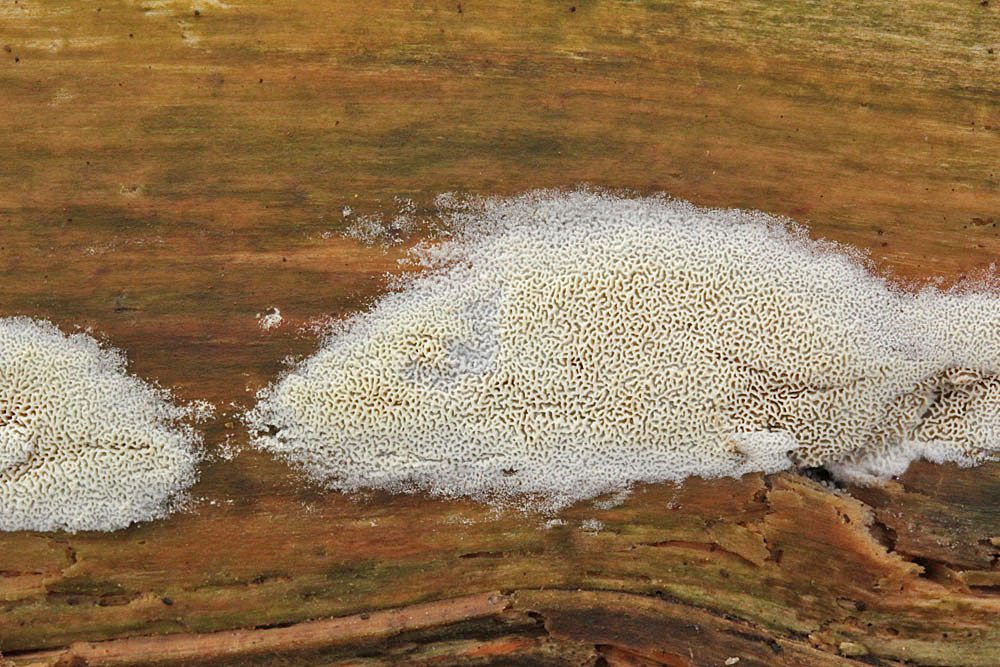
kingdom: Fungi
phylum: Basidiomycota
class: Agaricomycetes
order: Hymenochaetales
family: Schizoporaceae
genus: Xylodon
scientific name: Xylodon subtropicus
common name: labyrint-tandsvamp
